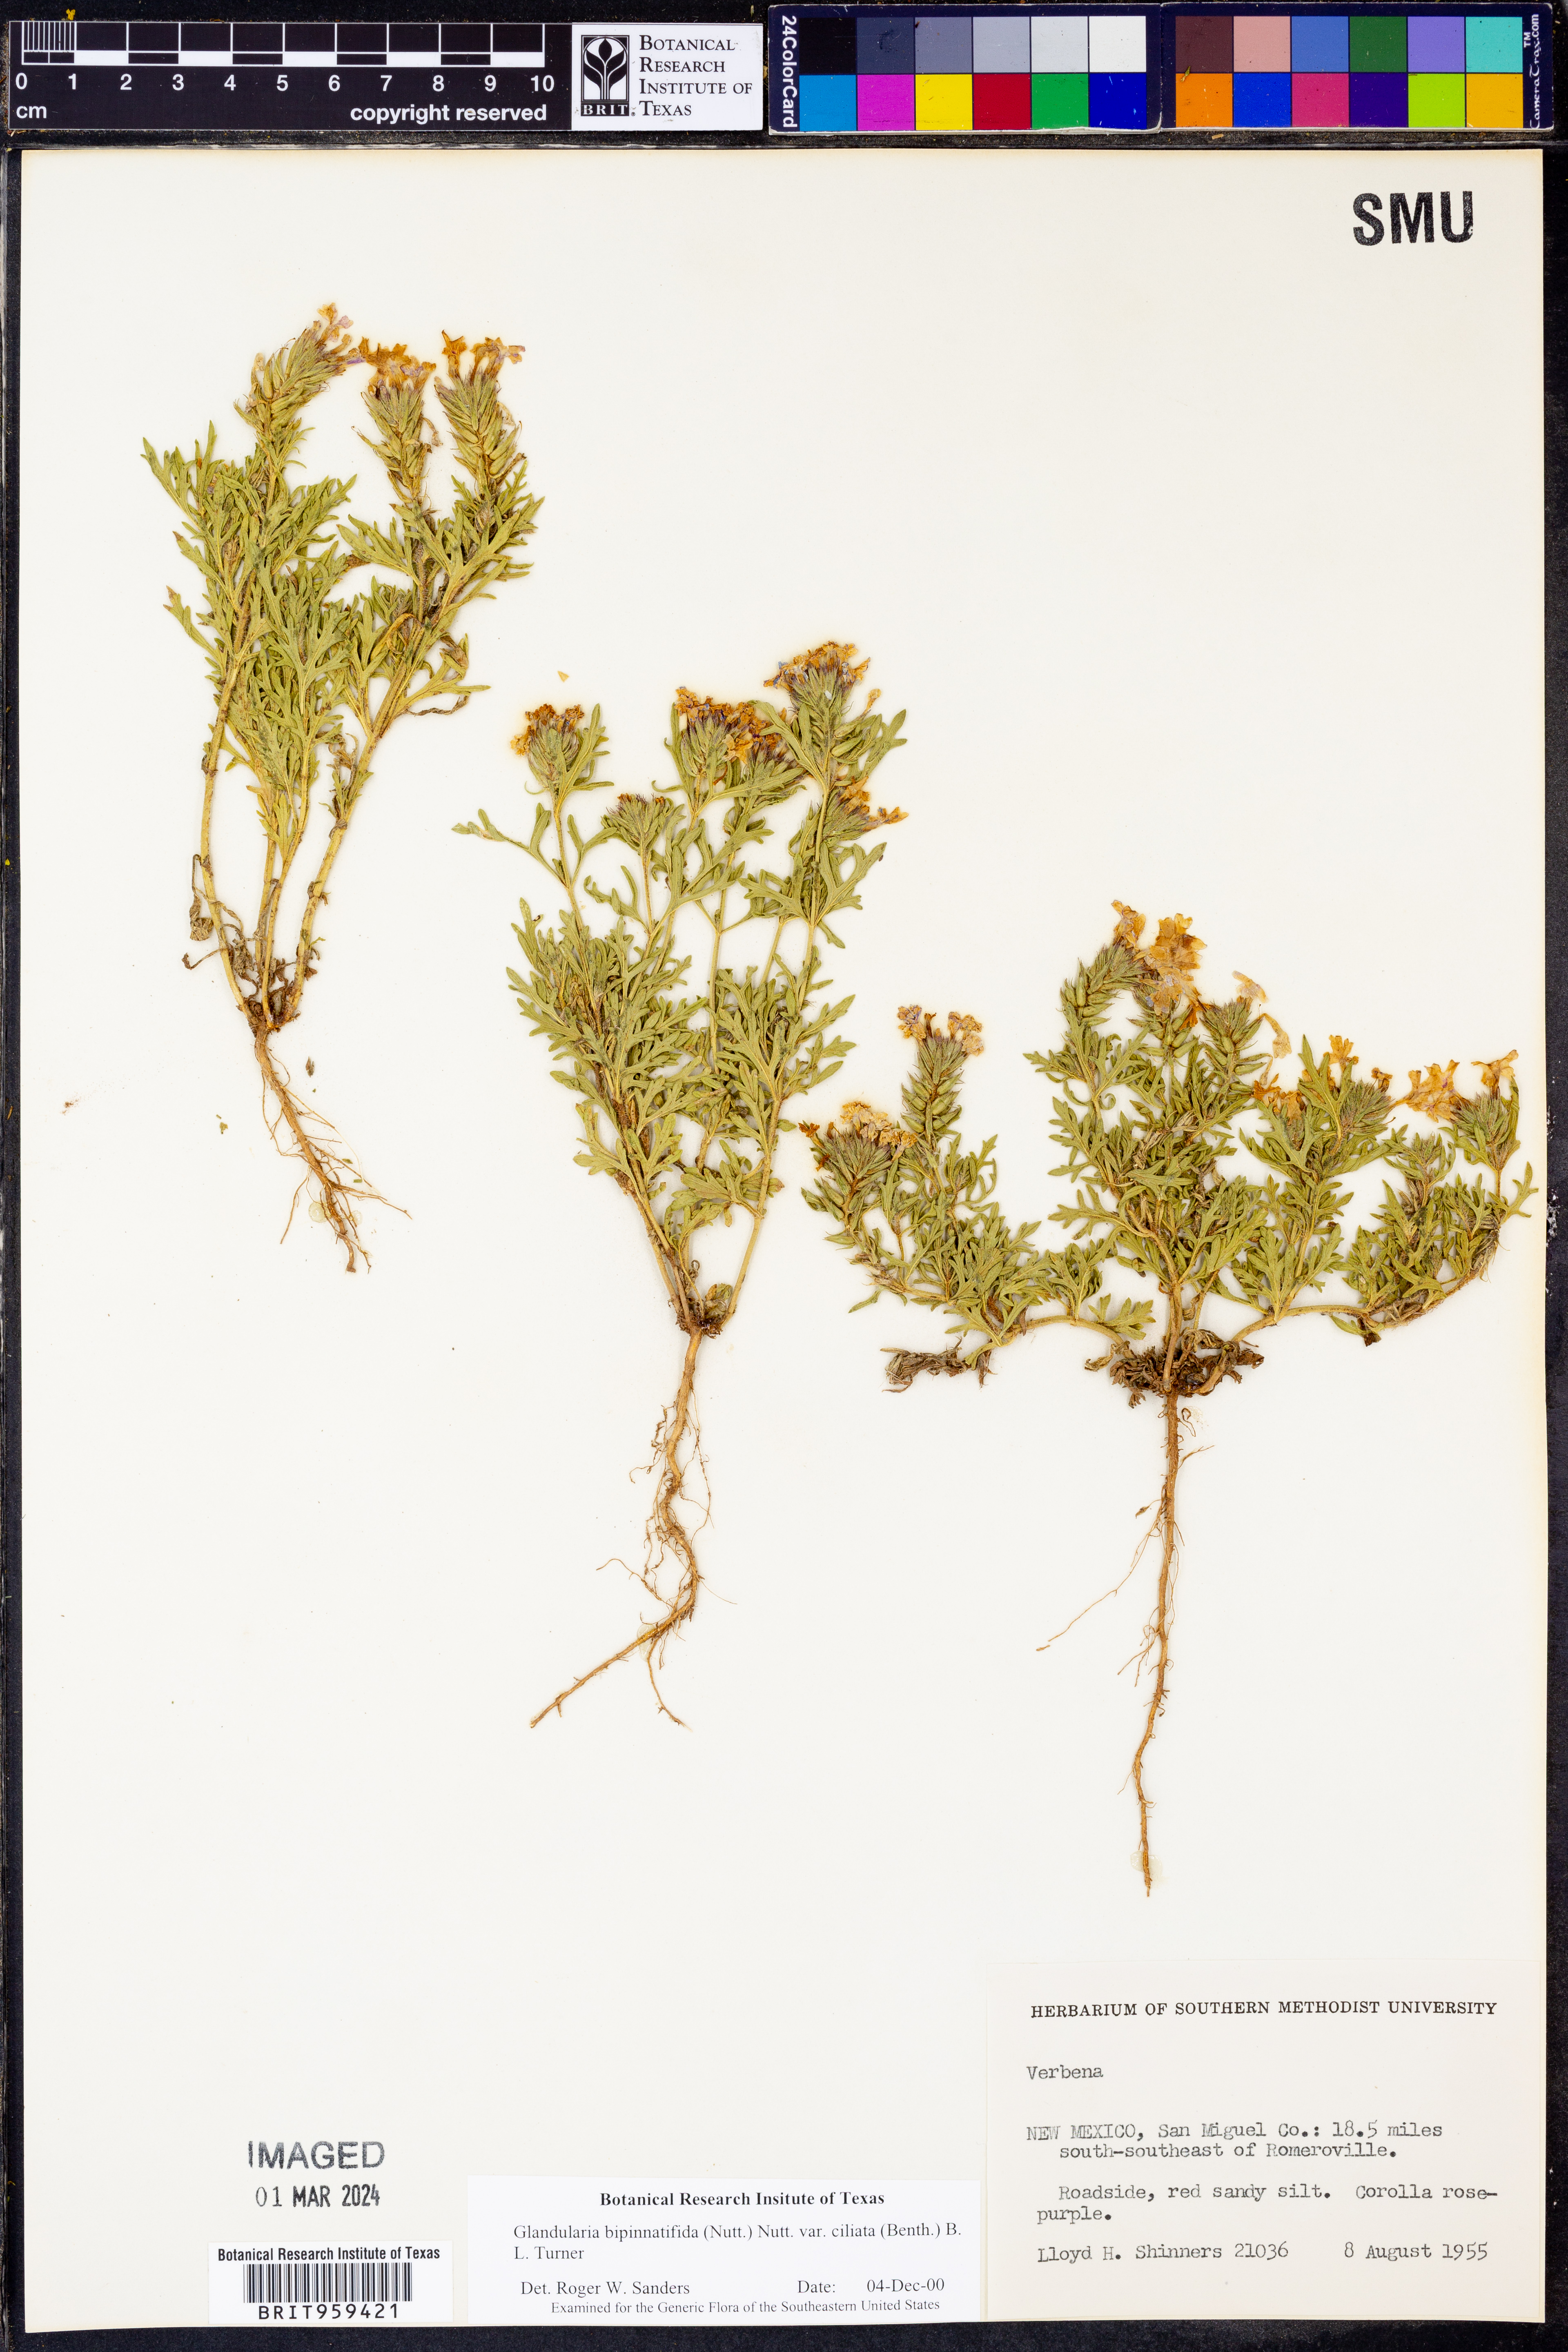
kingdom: Plantae
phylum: Tracheophyta
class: Magnoliopsida
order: Lamiales
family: Verbenaceae
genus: Verbena
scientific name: Verbena bipinnatifida
